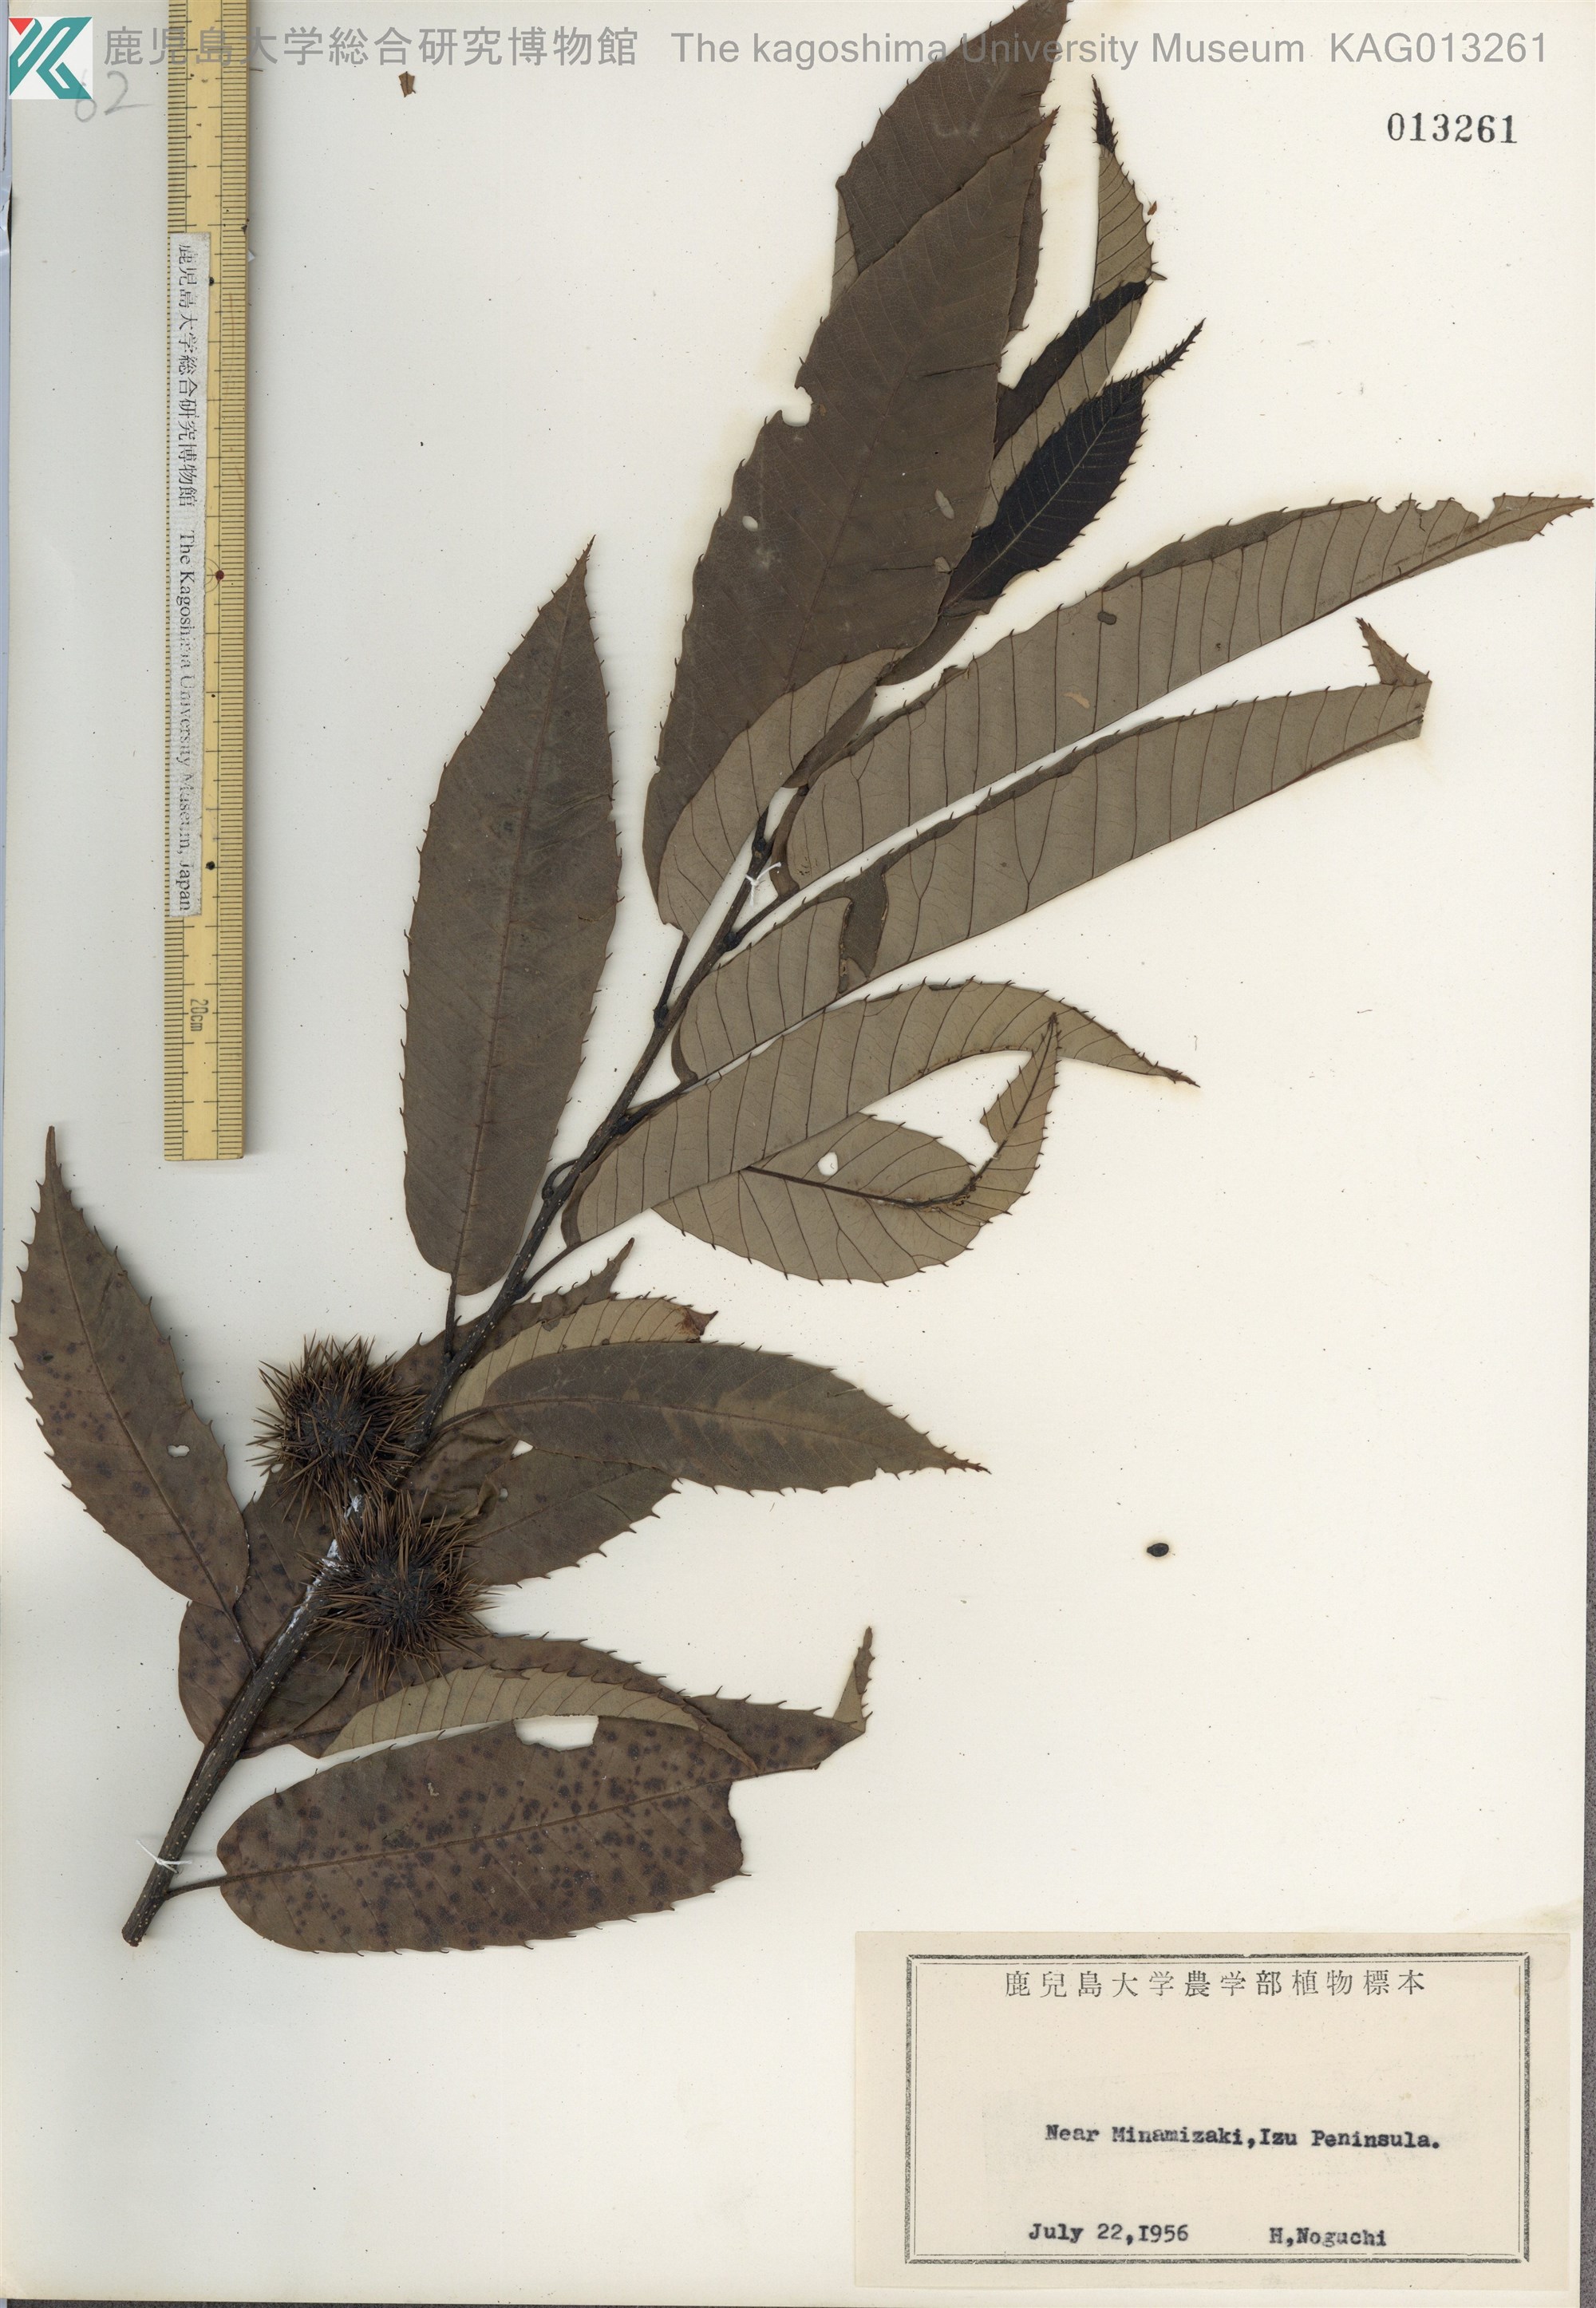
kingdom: Plantae
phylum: Tracheophyta
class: Magnoliopsida
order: Fagales
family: Fagaceae
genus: Castanea
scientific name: Castanea crenata
